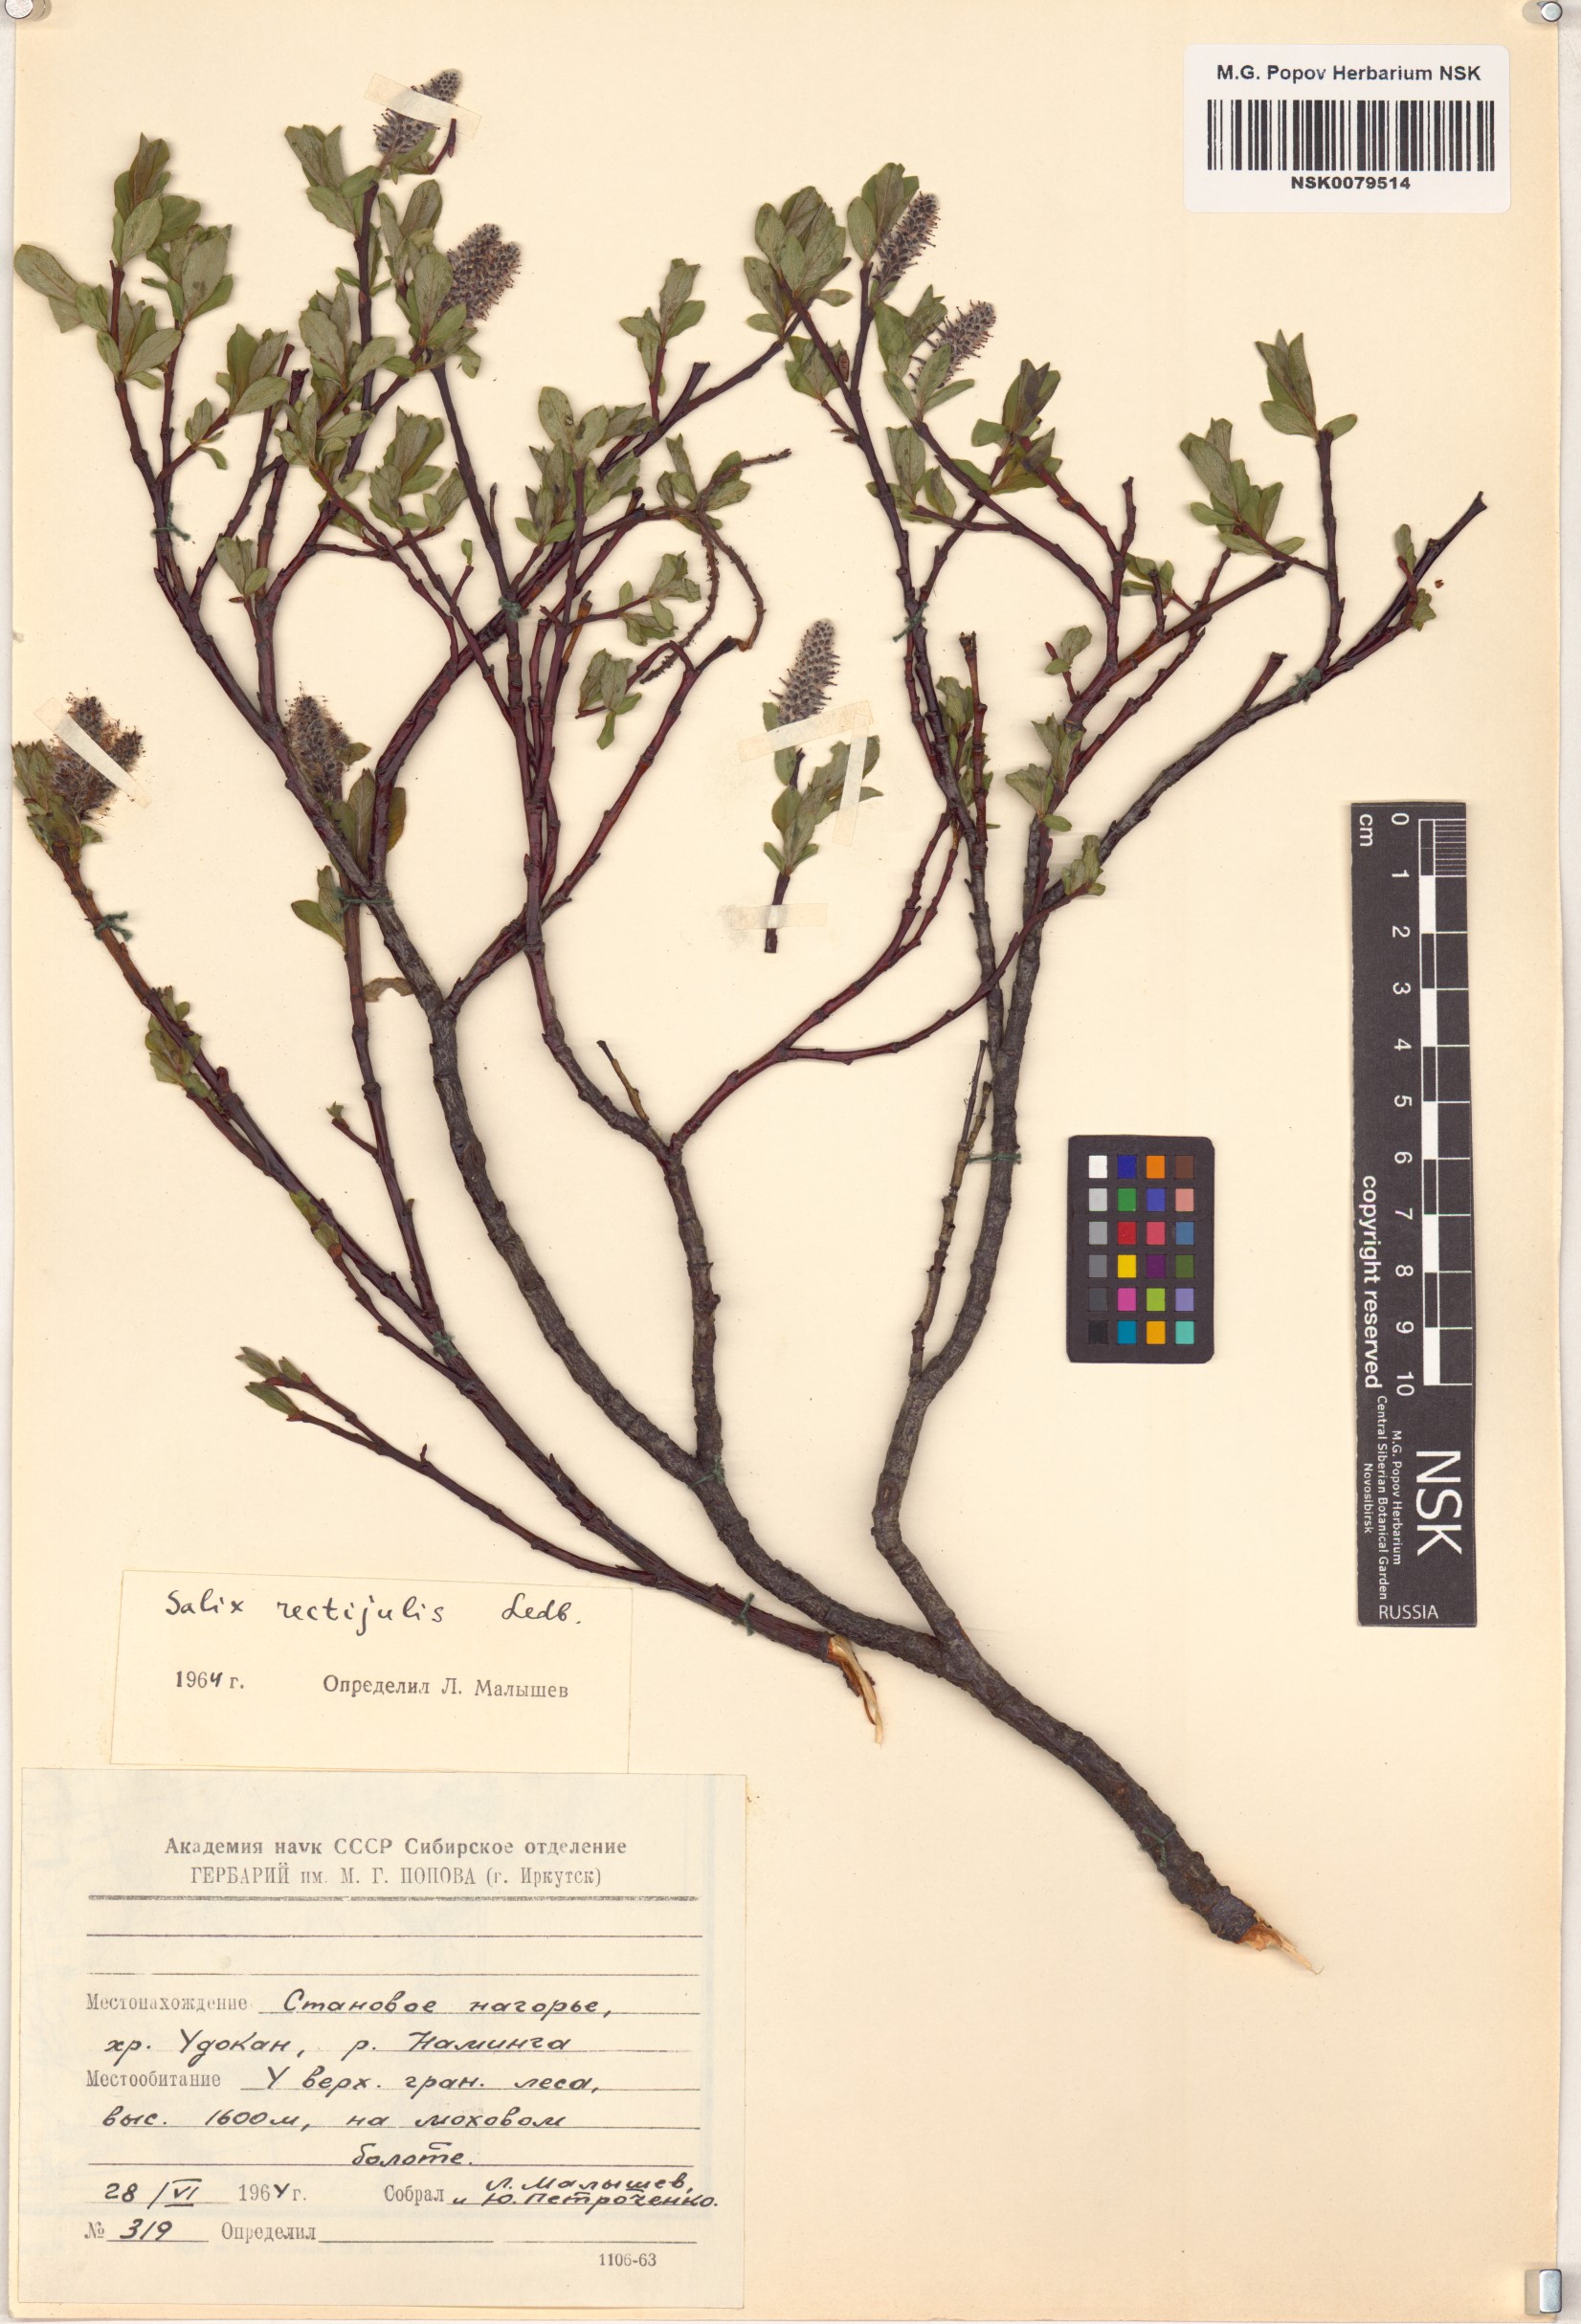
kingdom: Plantae
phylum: Tracheophyta
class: Magnoliopsida
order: Malpighiales
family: Salicaceae
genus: Salix
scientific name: Salix rectijulis
